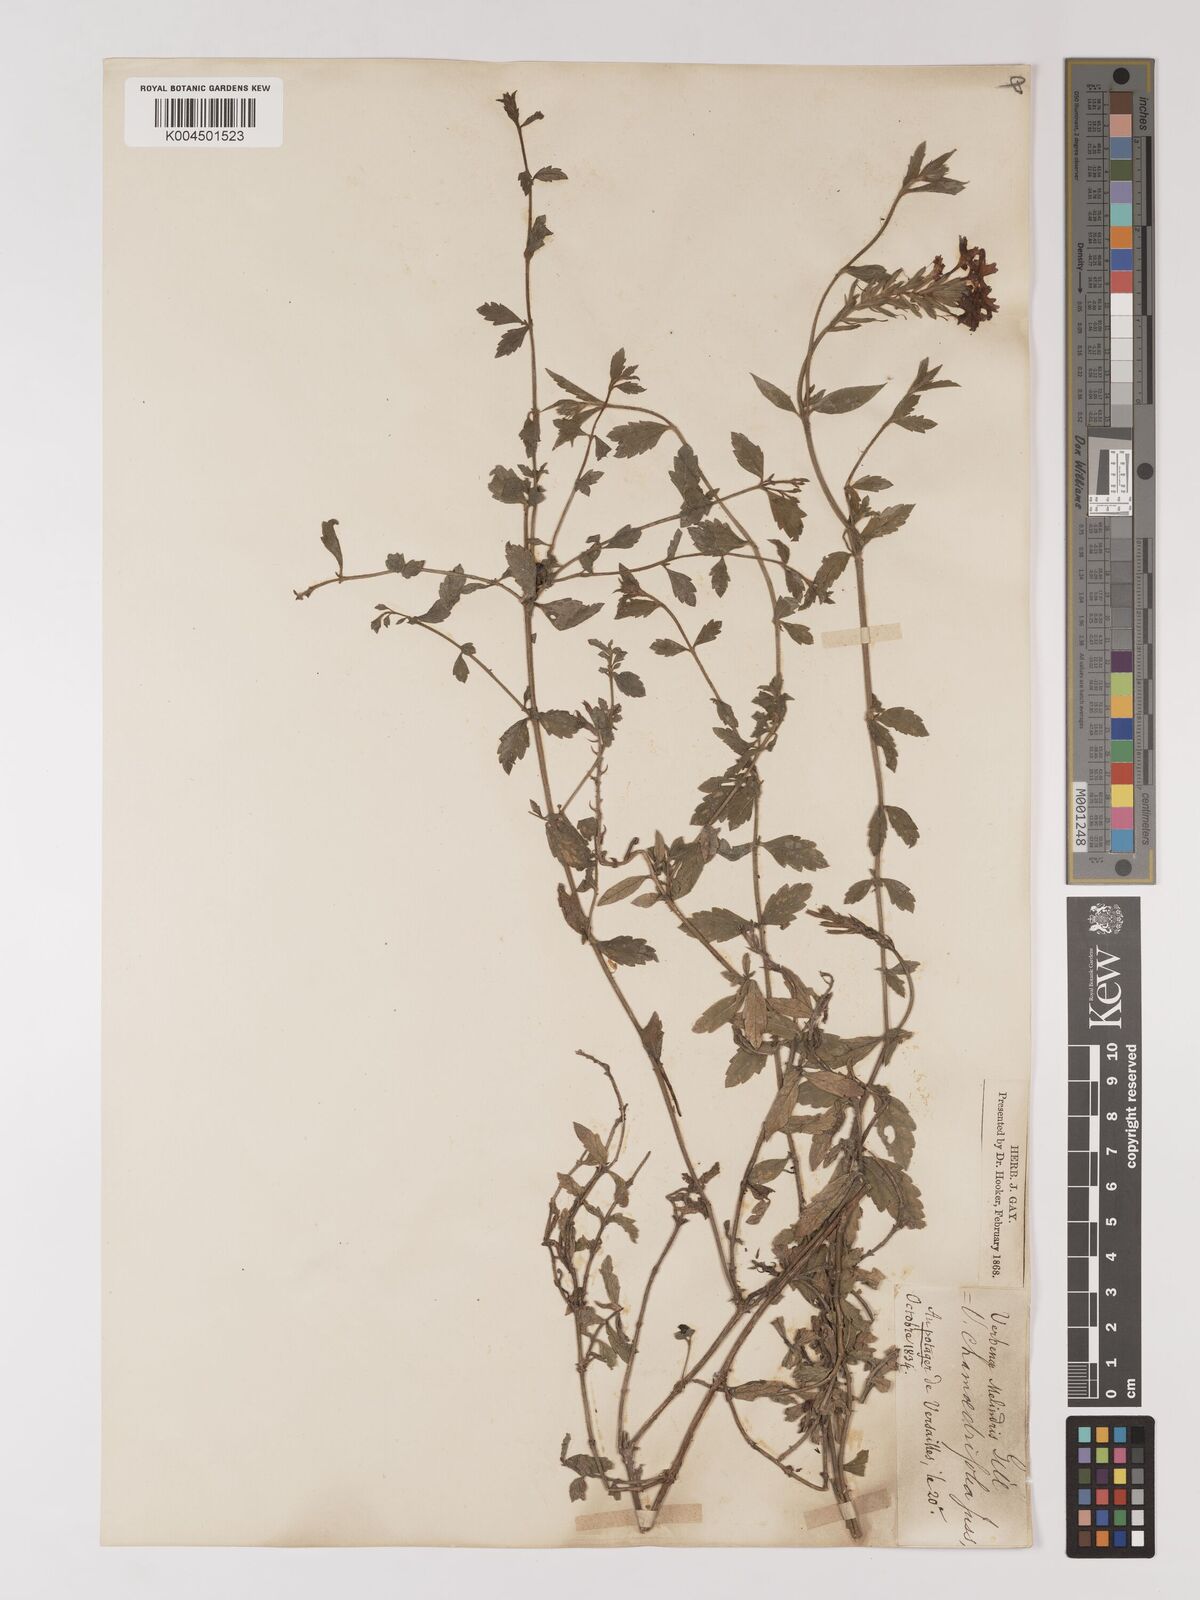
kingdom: Plantae
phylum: Tracheophyta
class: Magnoliopsida
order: Lamiales
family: Verbenaceae
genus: Verbena
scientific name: Verbena peruviana
